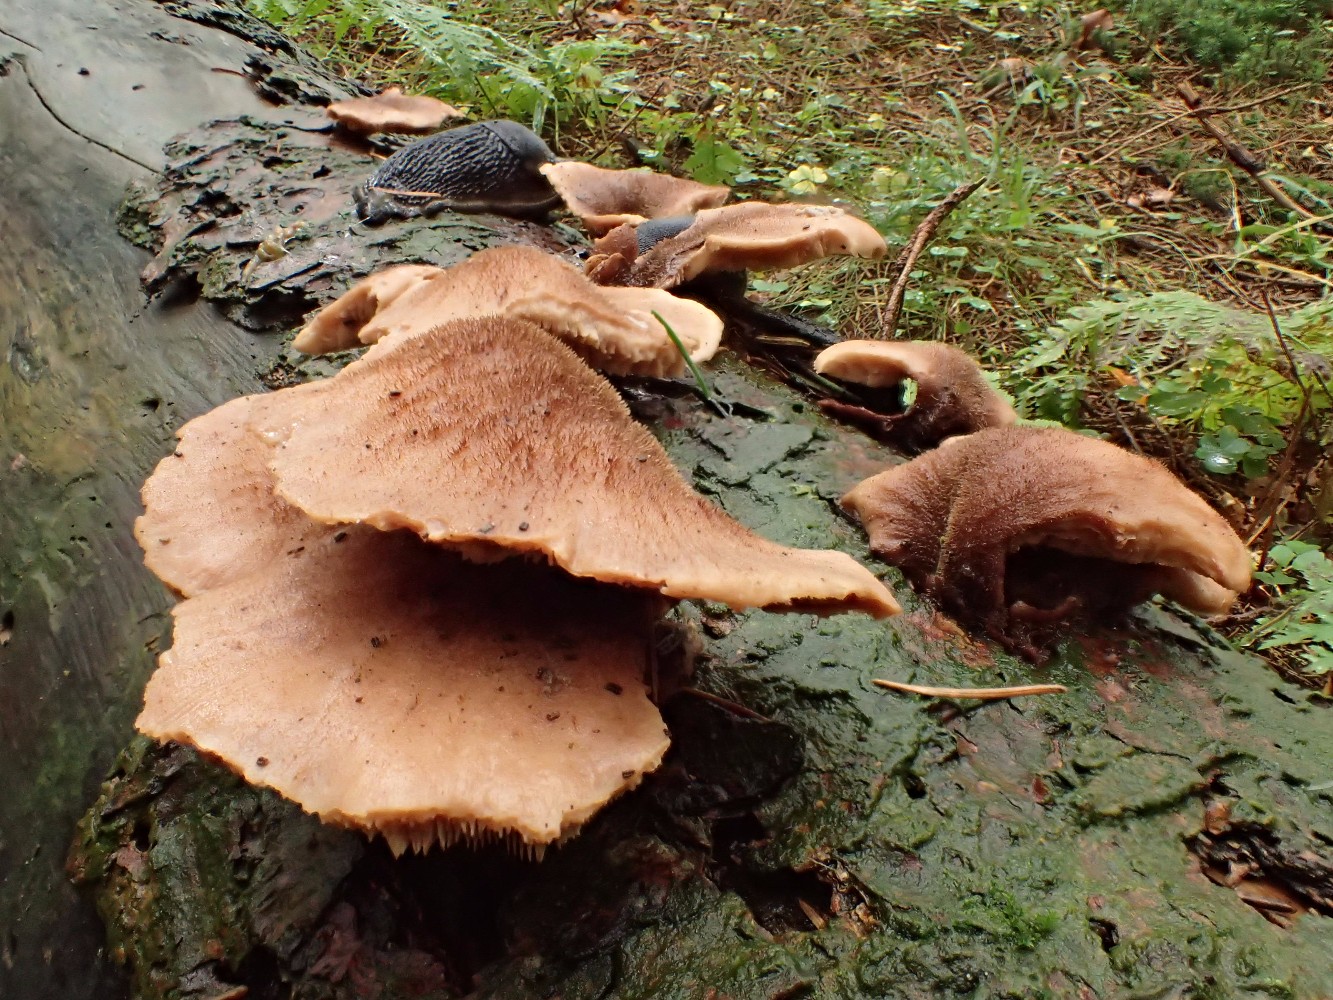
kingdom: Fungi
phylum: Basidiomycota
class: Agaricomycetes
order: Russulales
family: Auriscalpiaceae
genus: Lentinellus
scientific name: Lentinellus ursinus
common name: børstehåret savbladhat
